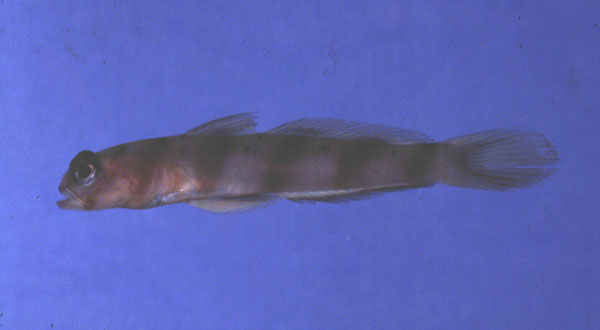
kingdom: Animalia
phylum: Chordata
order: Perciformes
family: Gobiidae
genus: Amblyeleotris
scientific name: Amblyeleotris diagonalis
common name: Diagonal shrimp goby
